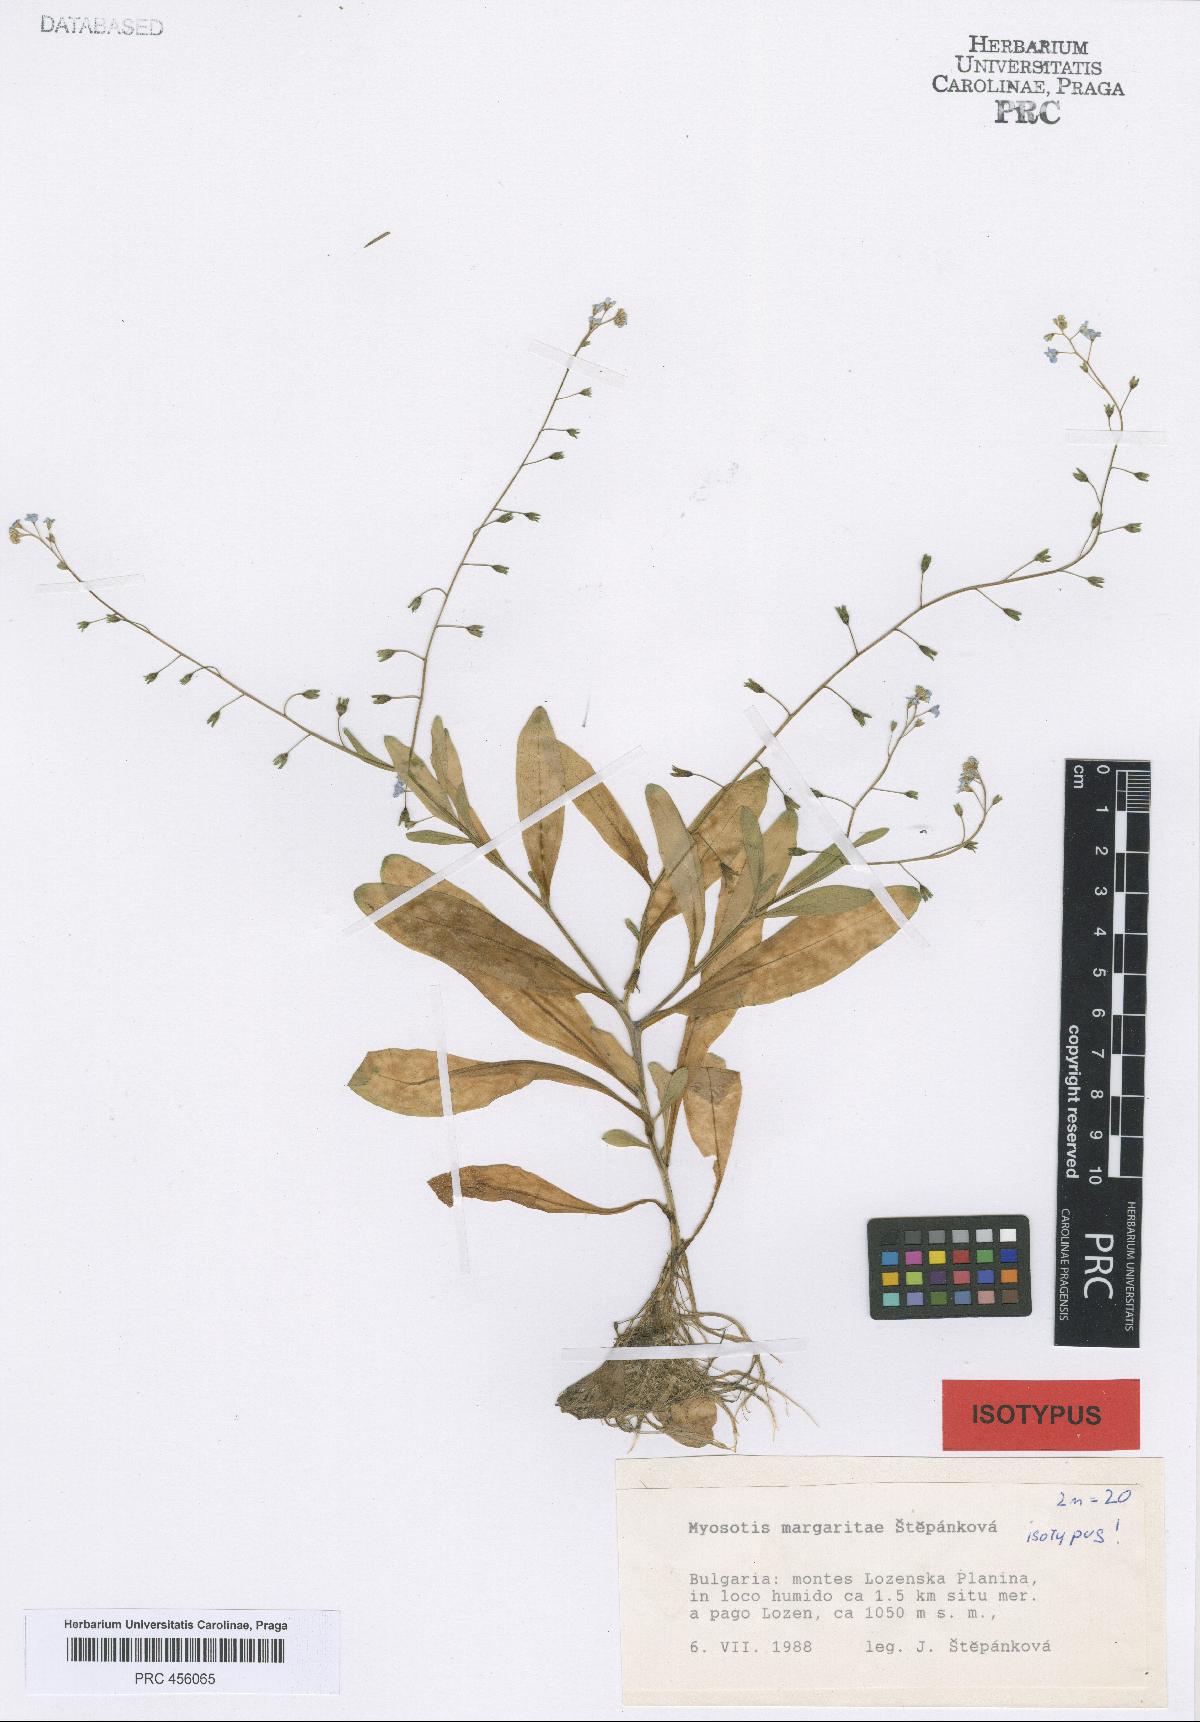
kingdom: Plantae
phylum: Tracheophyta
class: Magnoliopsida
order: Boraginales
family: Boraginaceae
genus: Myosotis
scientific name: Myosotis margaritae
